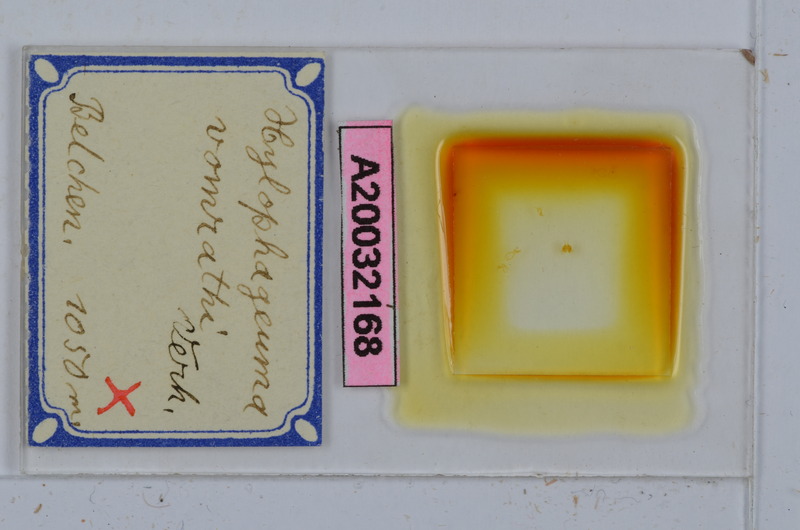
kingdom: Animalia
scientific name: Animalia
